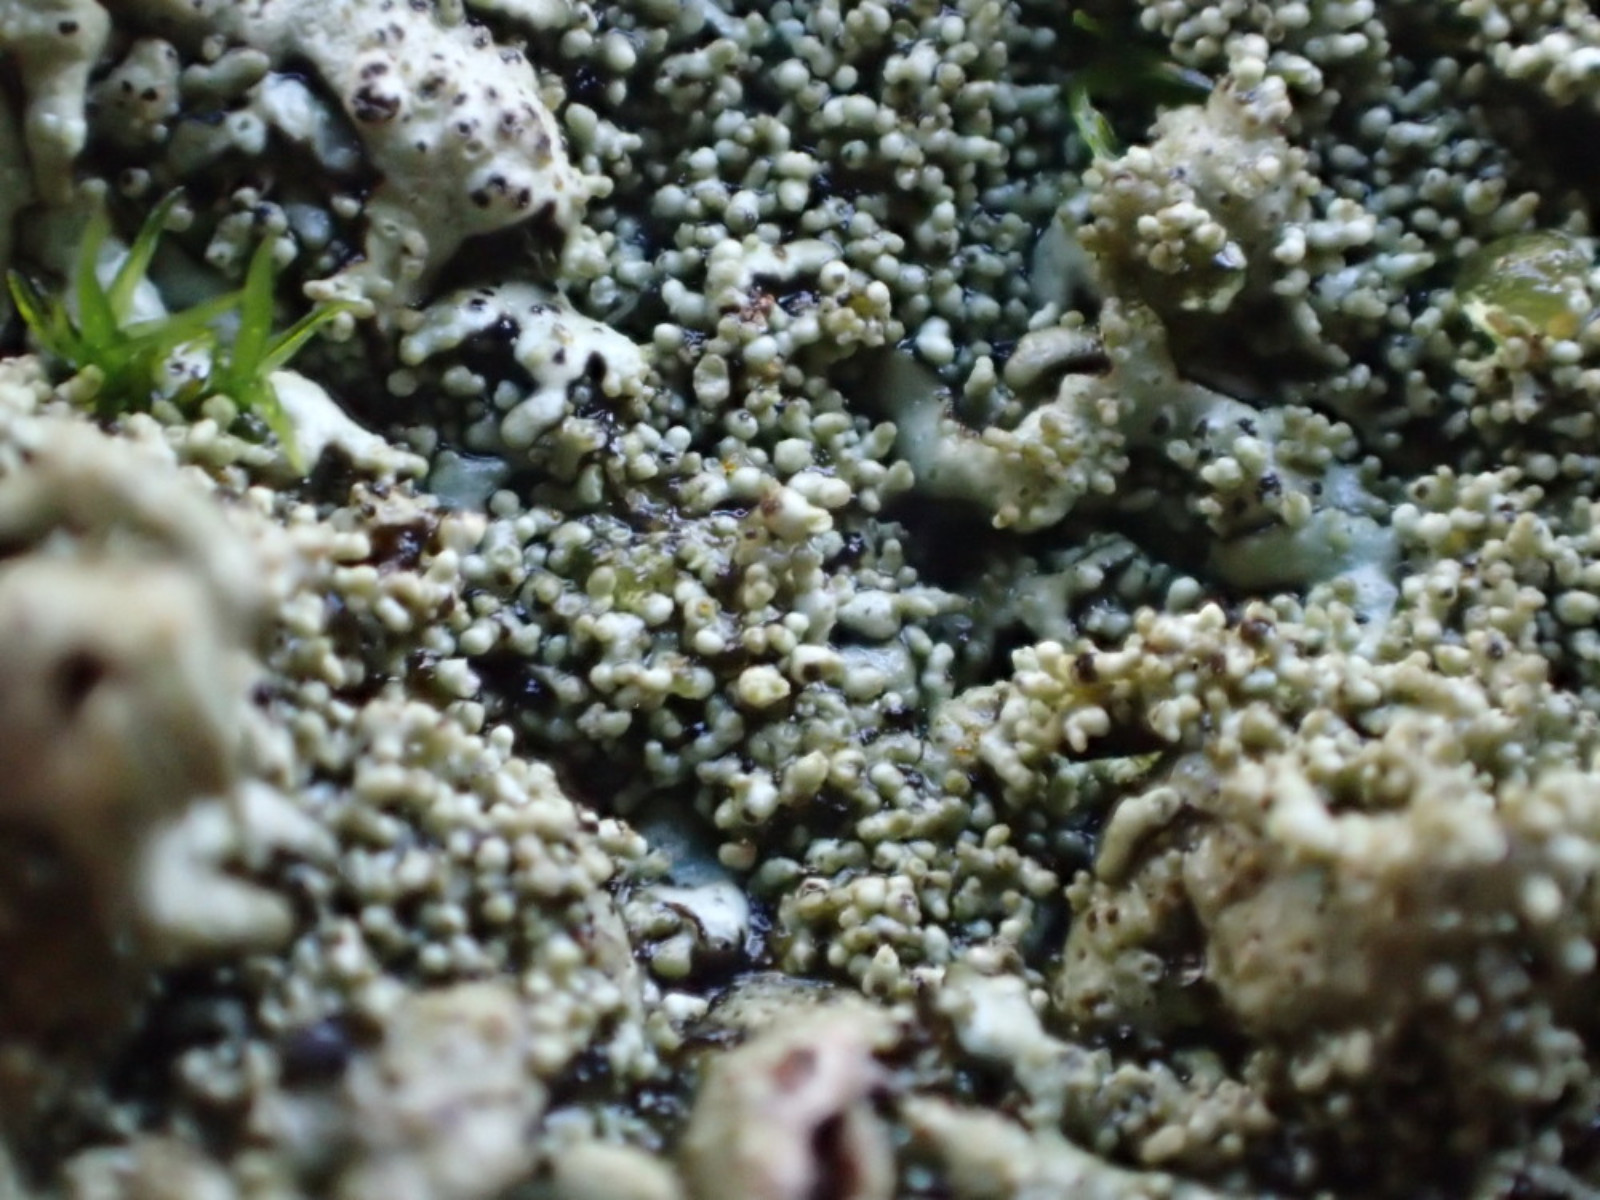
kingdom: Fungi
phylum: Ascomycota
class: Lecanoromycetes
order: Lecanorales
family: Parmeliaceae
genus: Xanthoparmelia
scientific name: Xanthoparmelia conspersa
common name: messing-skållav
